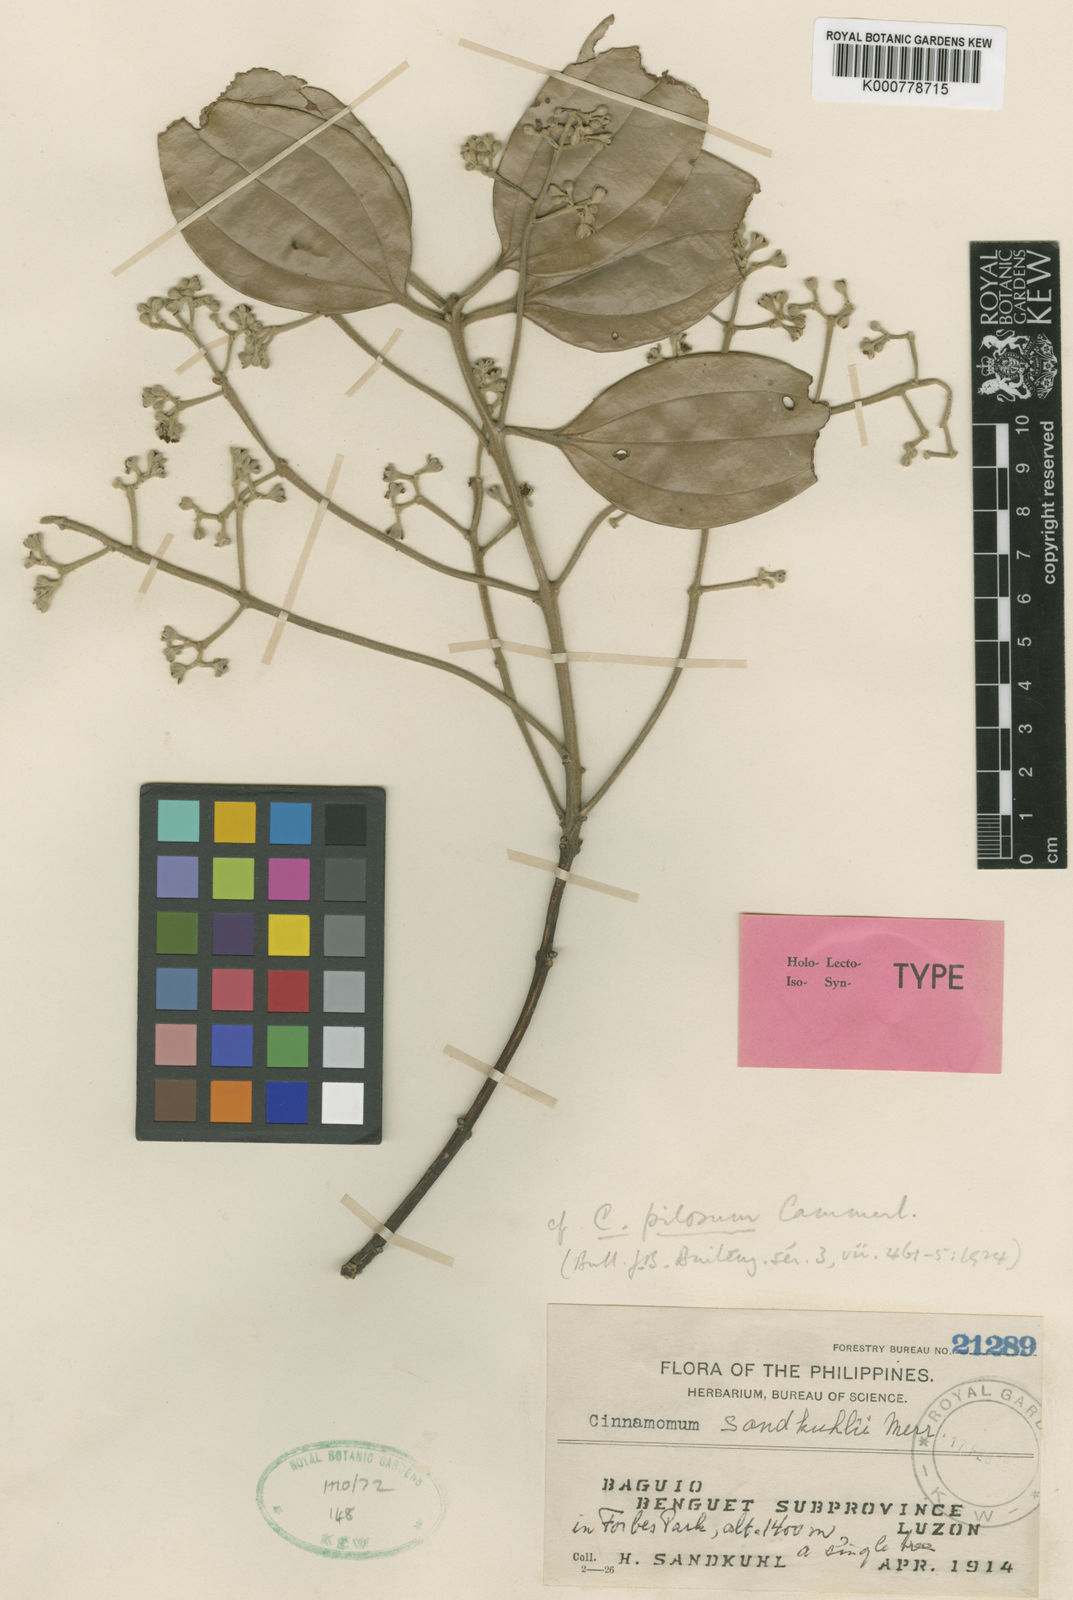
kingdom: Plantae
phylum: Tracheophyta
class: Magnoliopsida
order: Laurales
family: Lauraceae
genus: Cinnamomum
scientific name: Cinnamomum sandkuhlii
